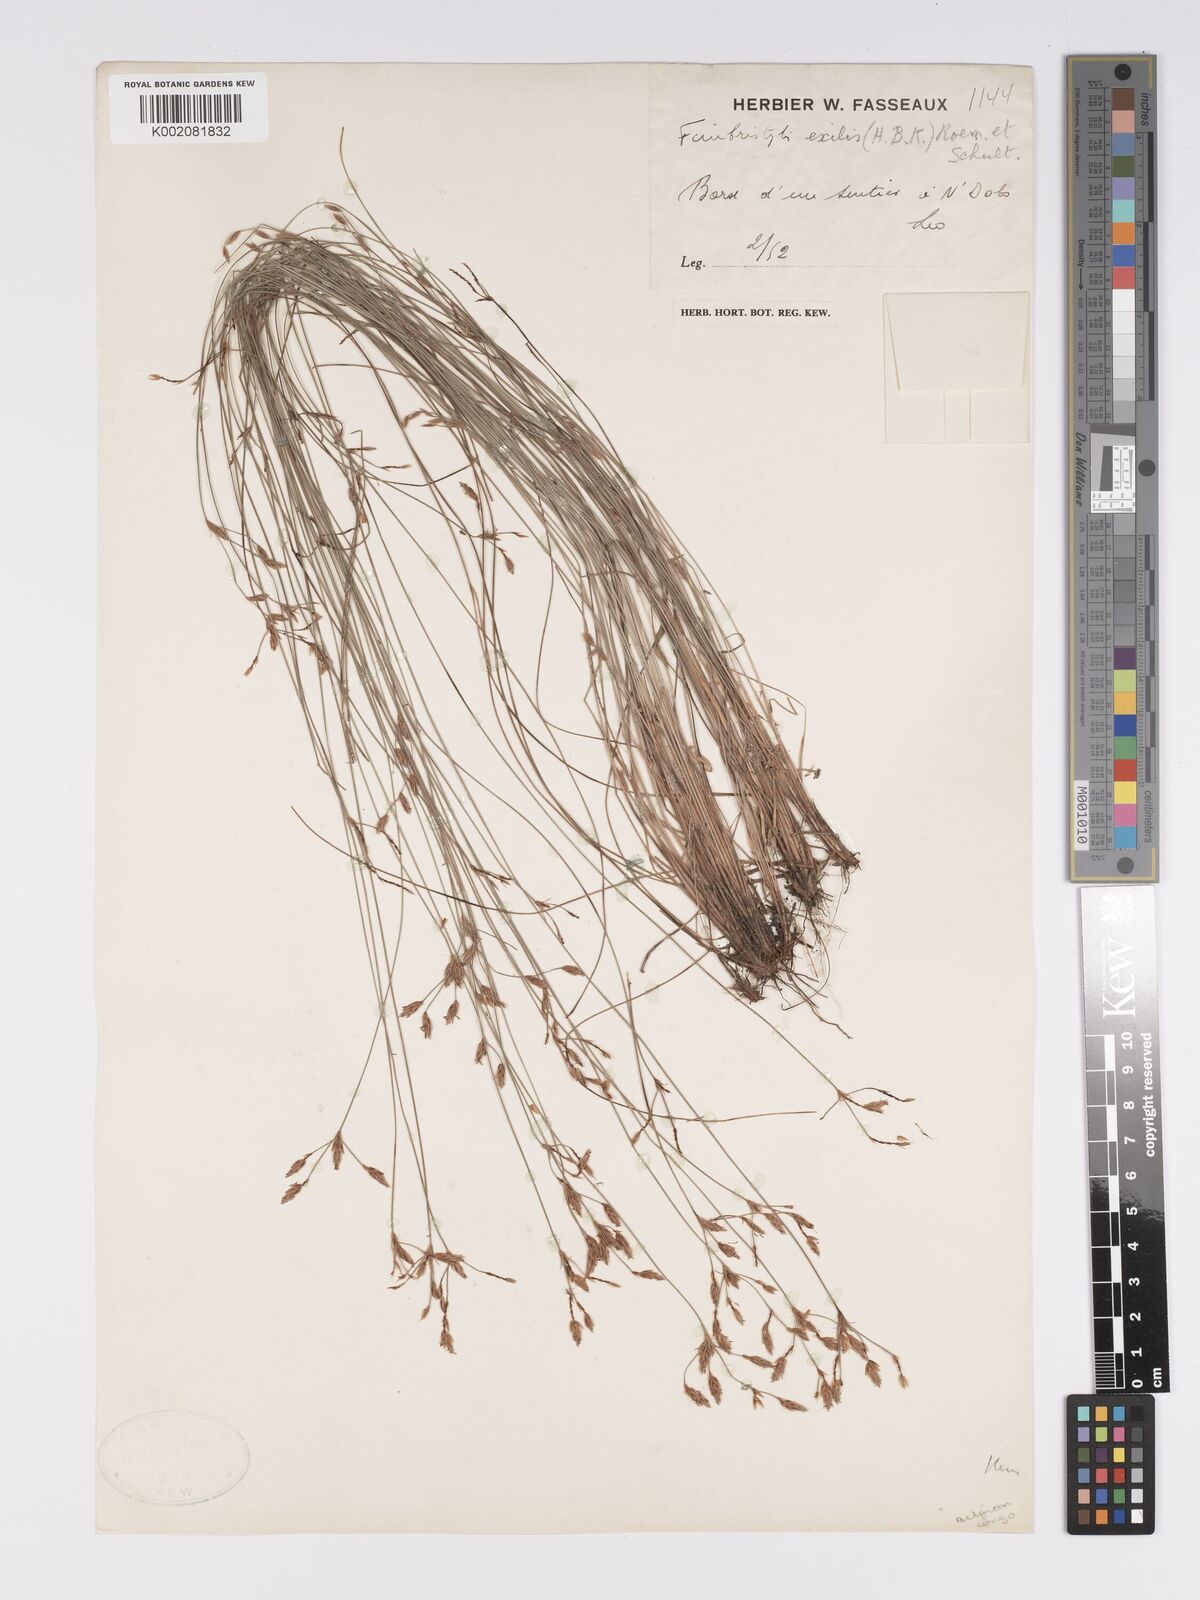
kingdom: Plantae
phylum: Tracheophyta
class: Liliopsida
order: Poales
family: Cyperaceae
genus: Bulbostylis
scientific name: Bulbostylis hispidula
